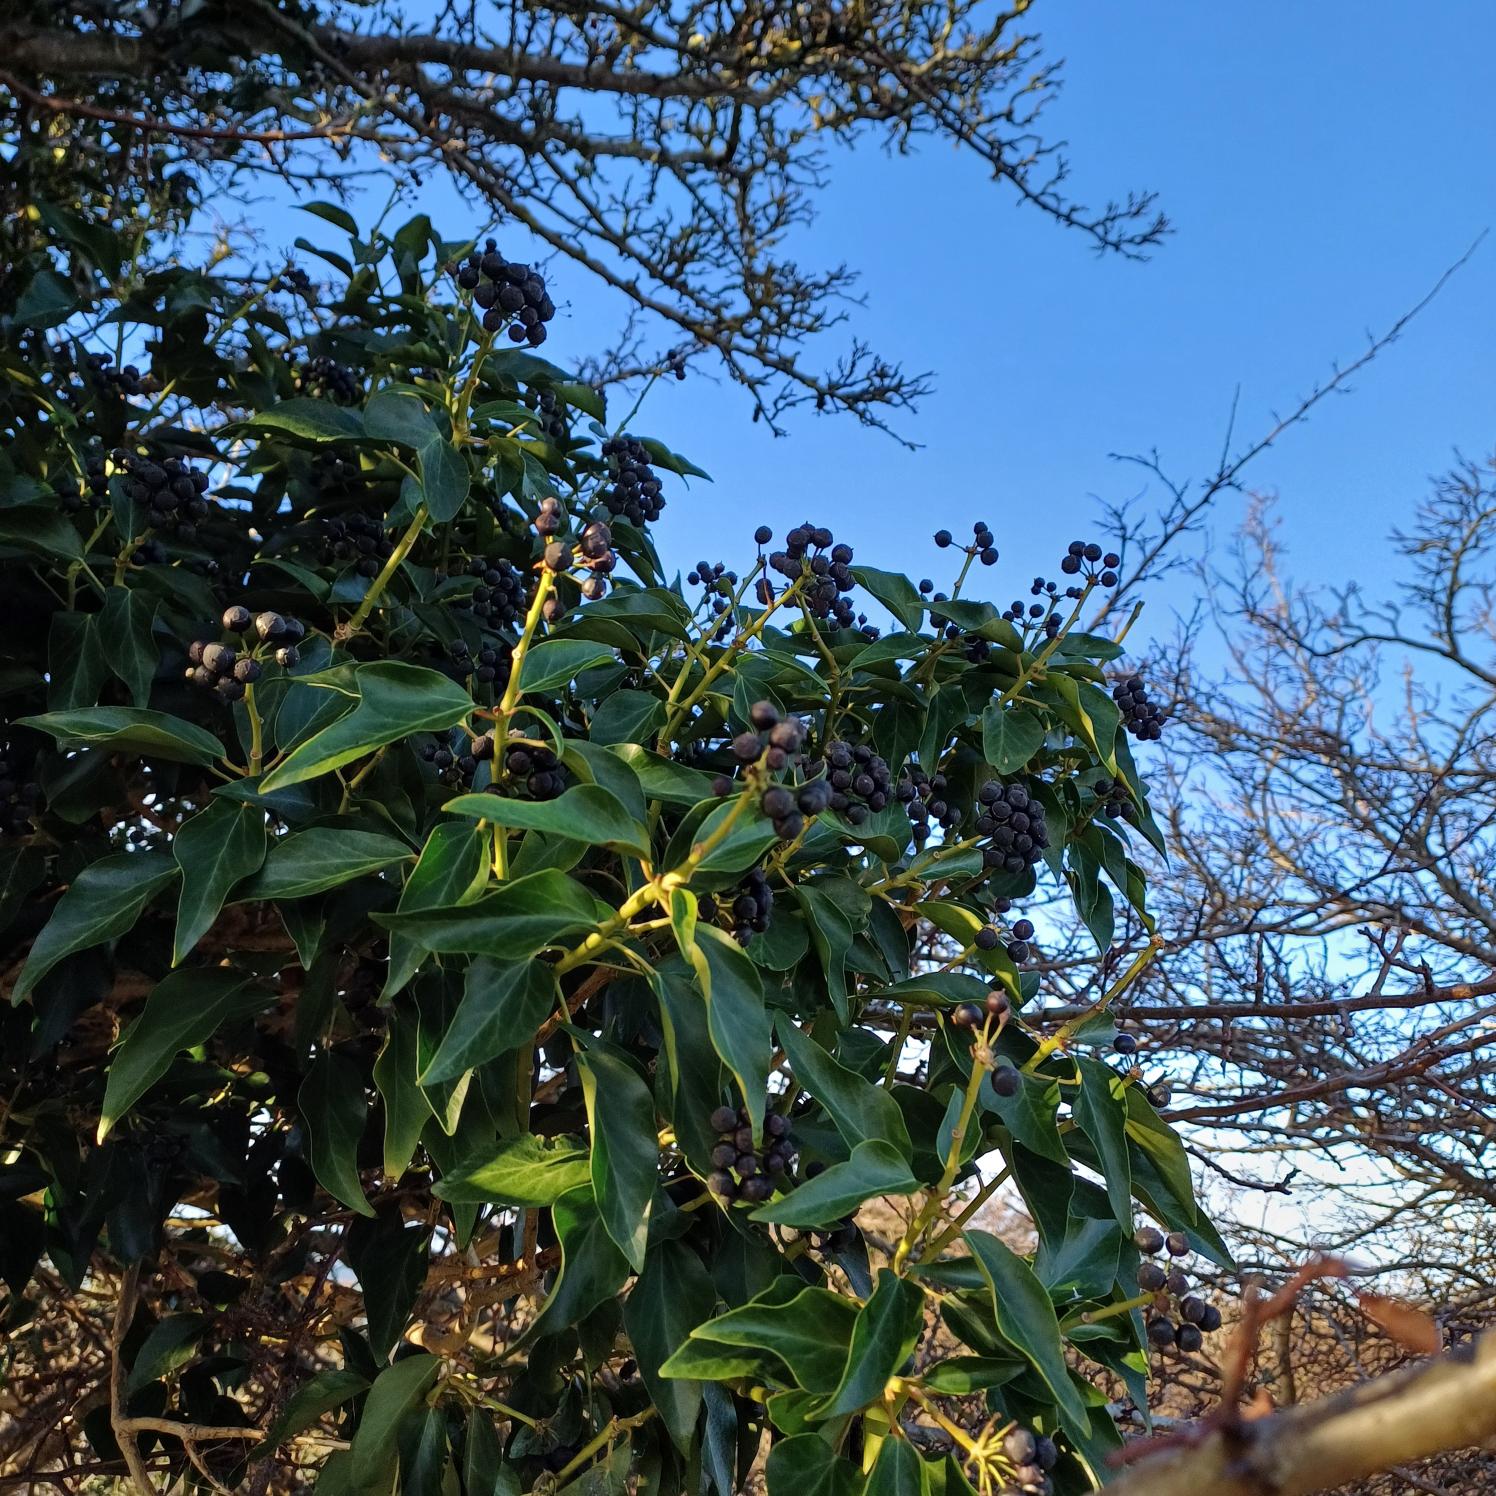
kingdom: Plantae
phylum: Tracheophyta
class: Magnoliopsida
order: Apiales
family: Araliaceae
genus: Hedera
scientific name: Hedera helix
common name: Vedbend
